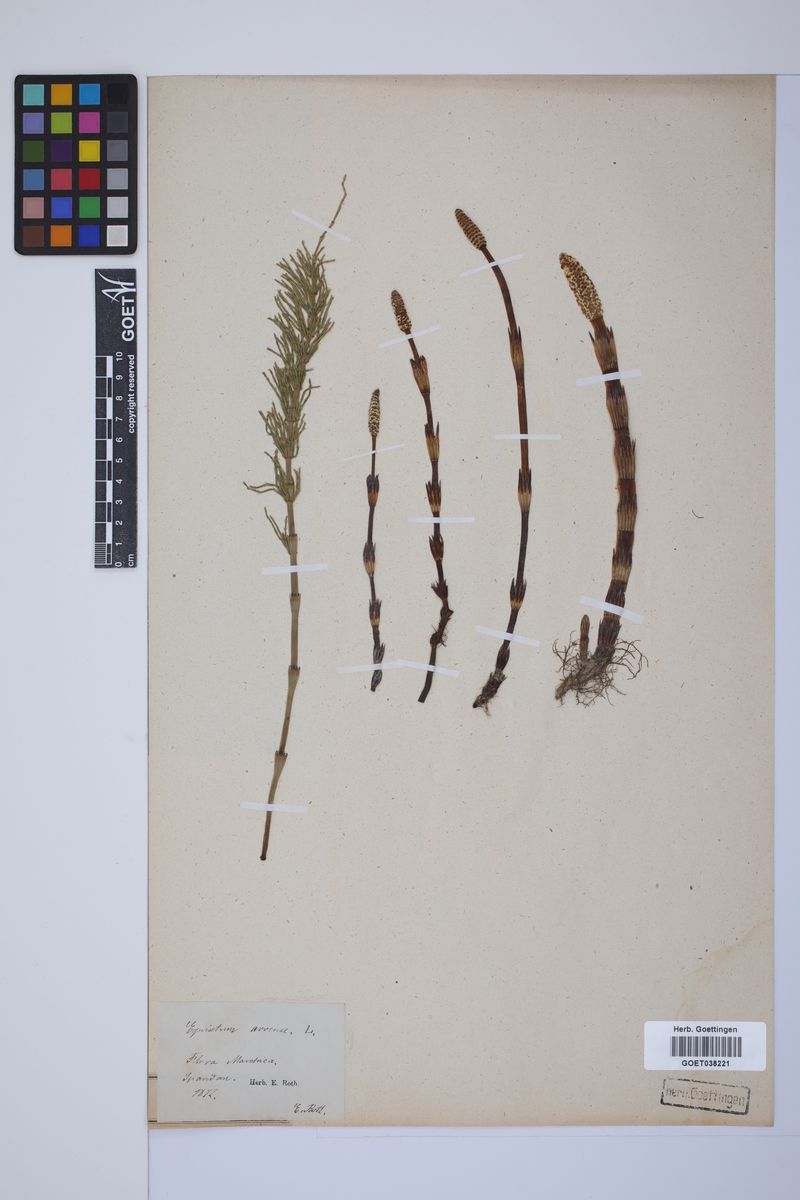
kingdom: Plantae
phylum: Tracheophyta
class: Polypodiopsida
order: Equisetales
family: Equisetaceae
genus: Equisetum
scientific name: Equisetum arvense
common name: Field horsetail
